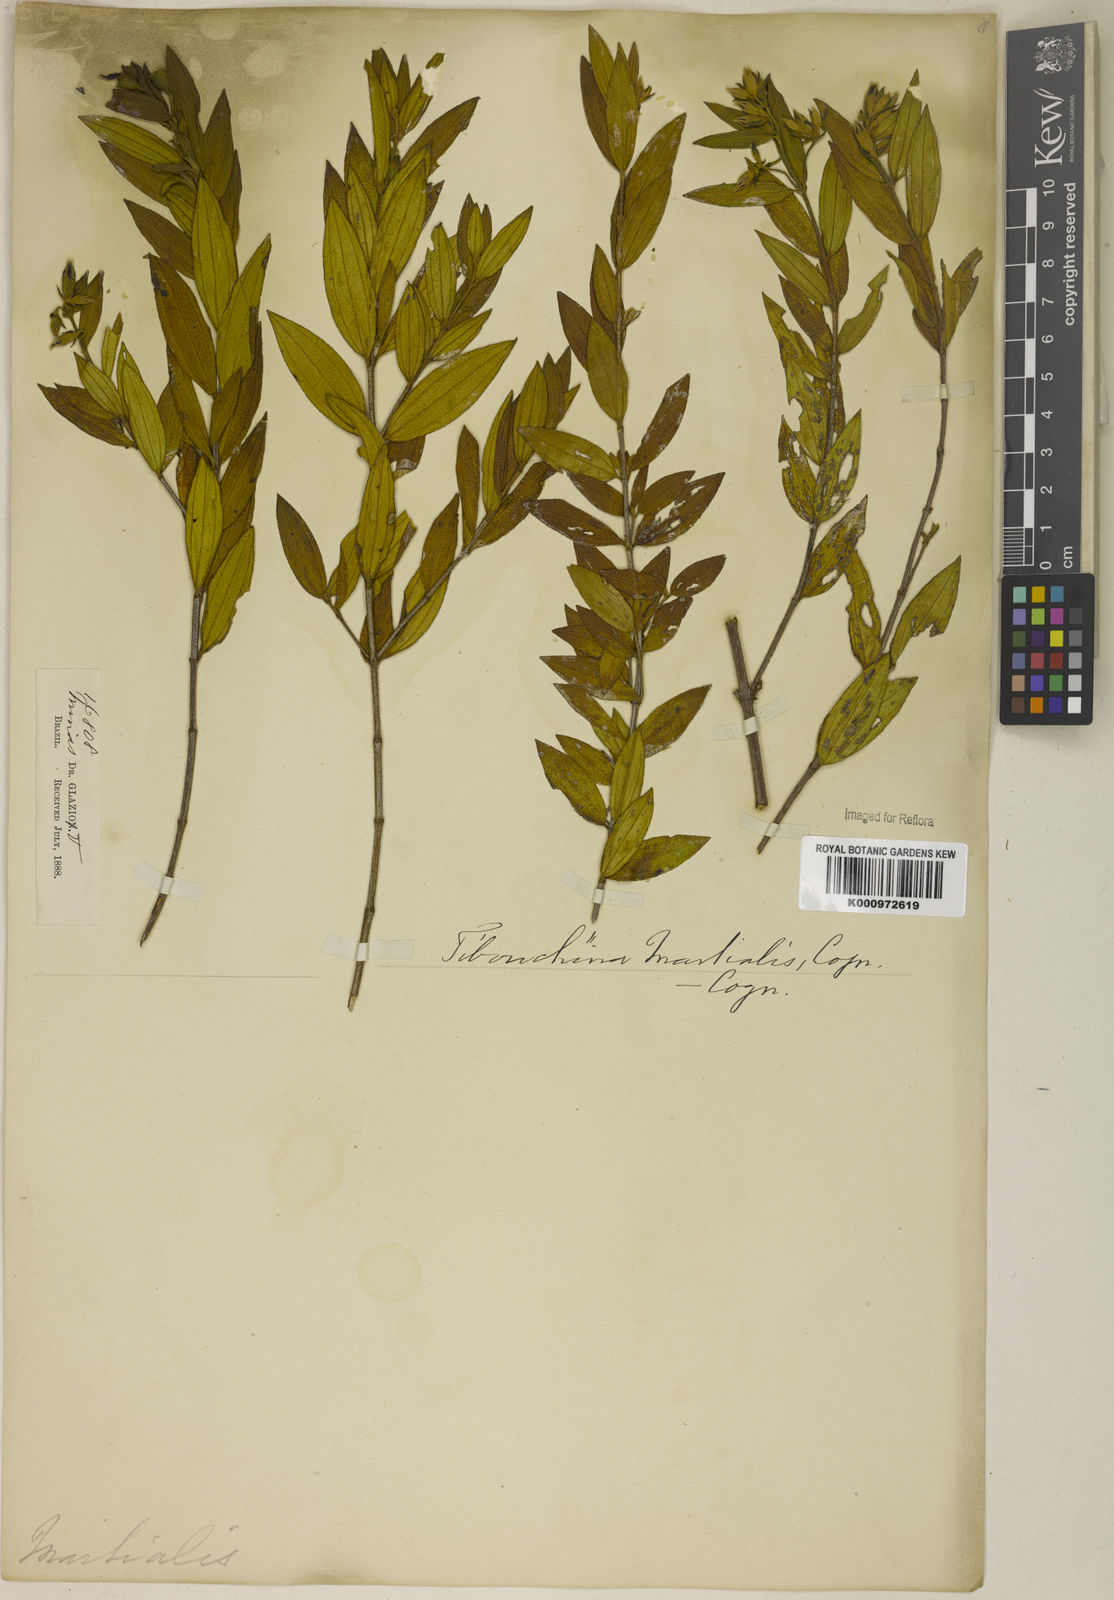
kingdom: Plantae
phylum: Tracheophyta
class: Magnoliopsida
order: Myrtales
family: Melastomataceae
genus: Pleroma
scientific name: Pleroma martiale
